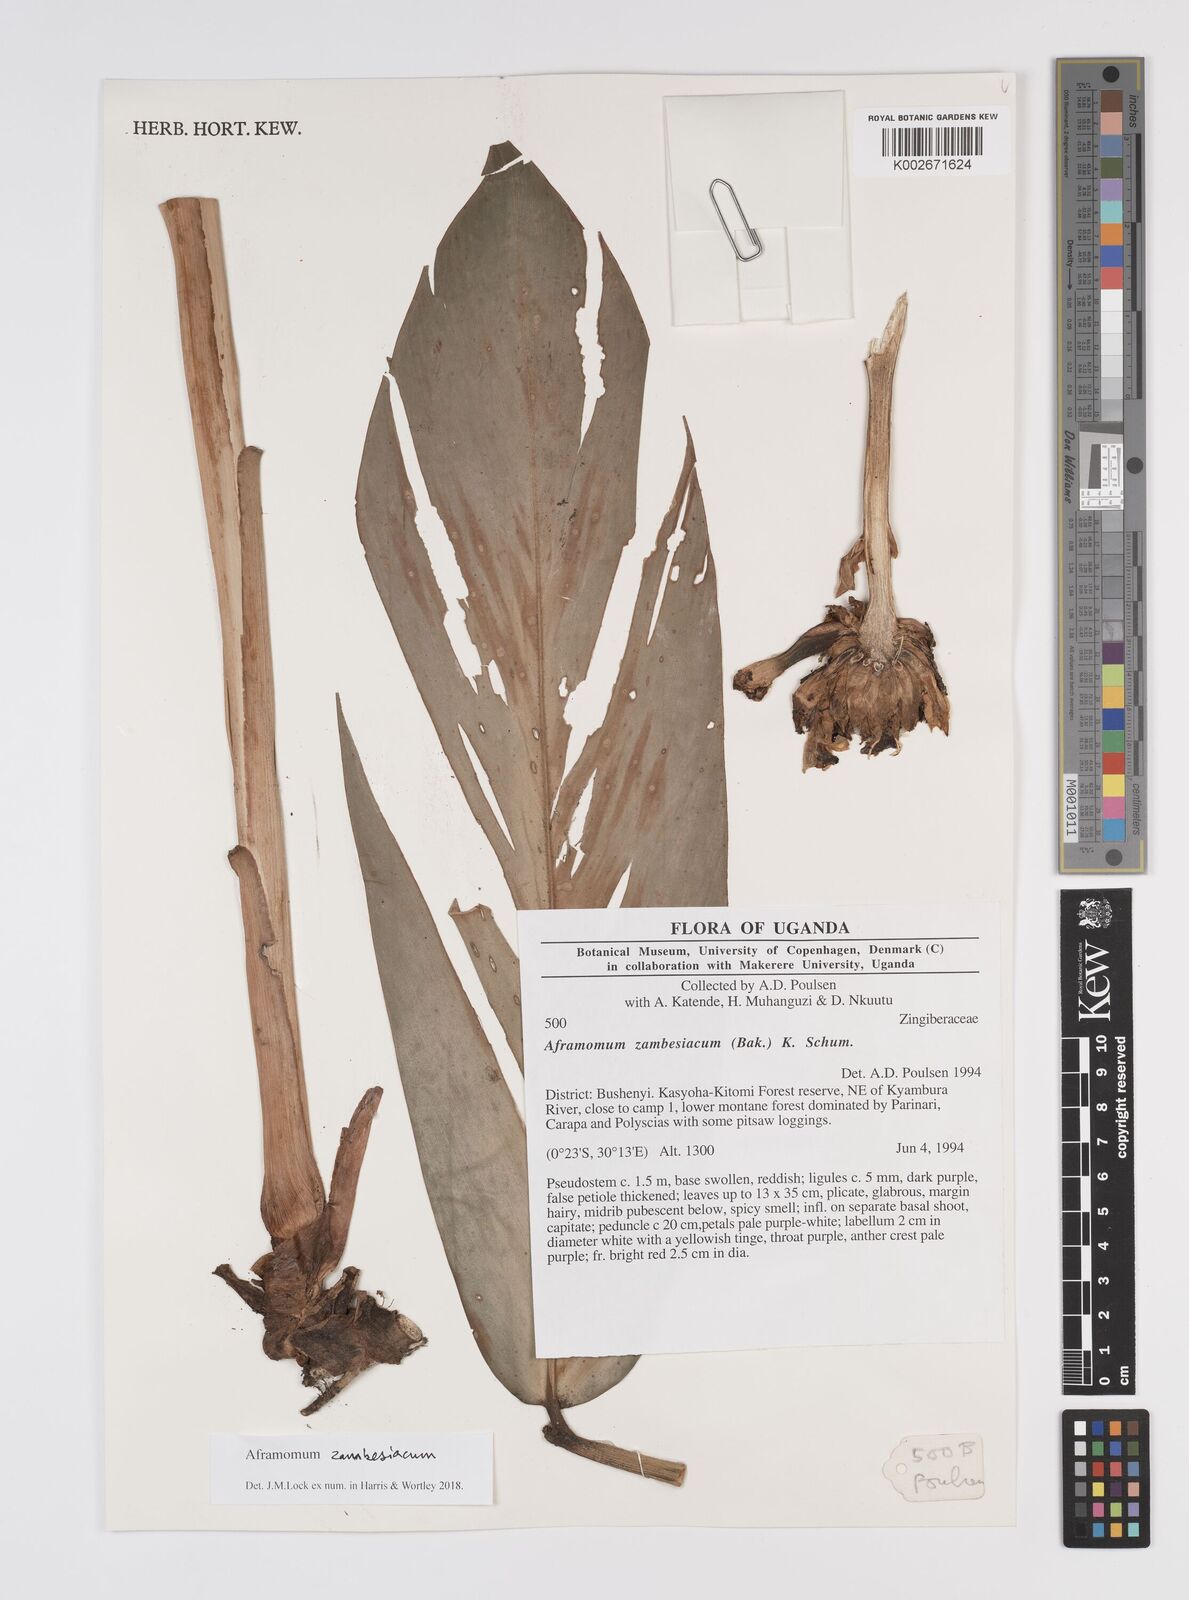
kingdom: Plantae
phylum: Tracheophyta
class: Liliopsida
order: Zingiberales
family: Zingiberaceae
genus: Aframomum
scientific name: Aframomum zambesiacum
